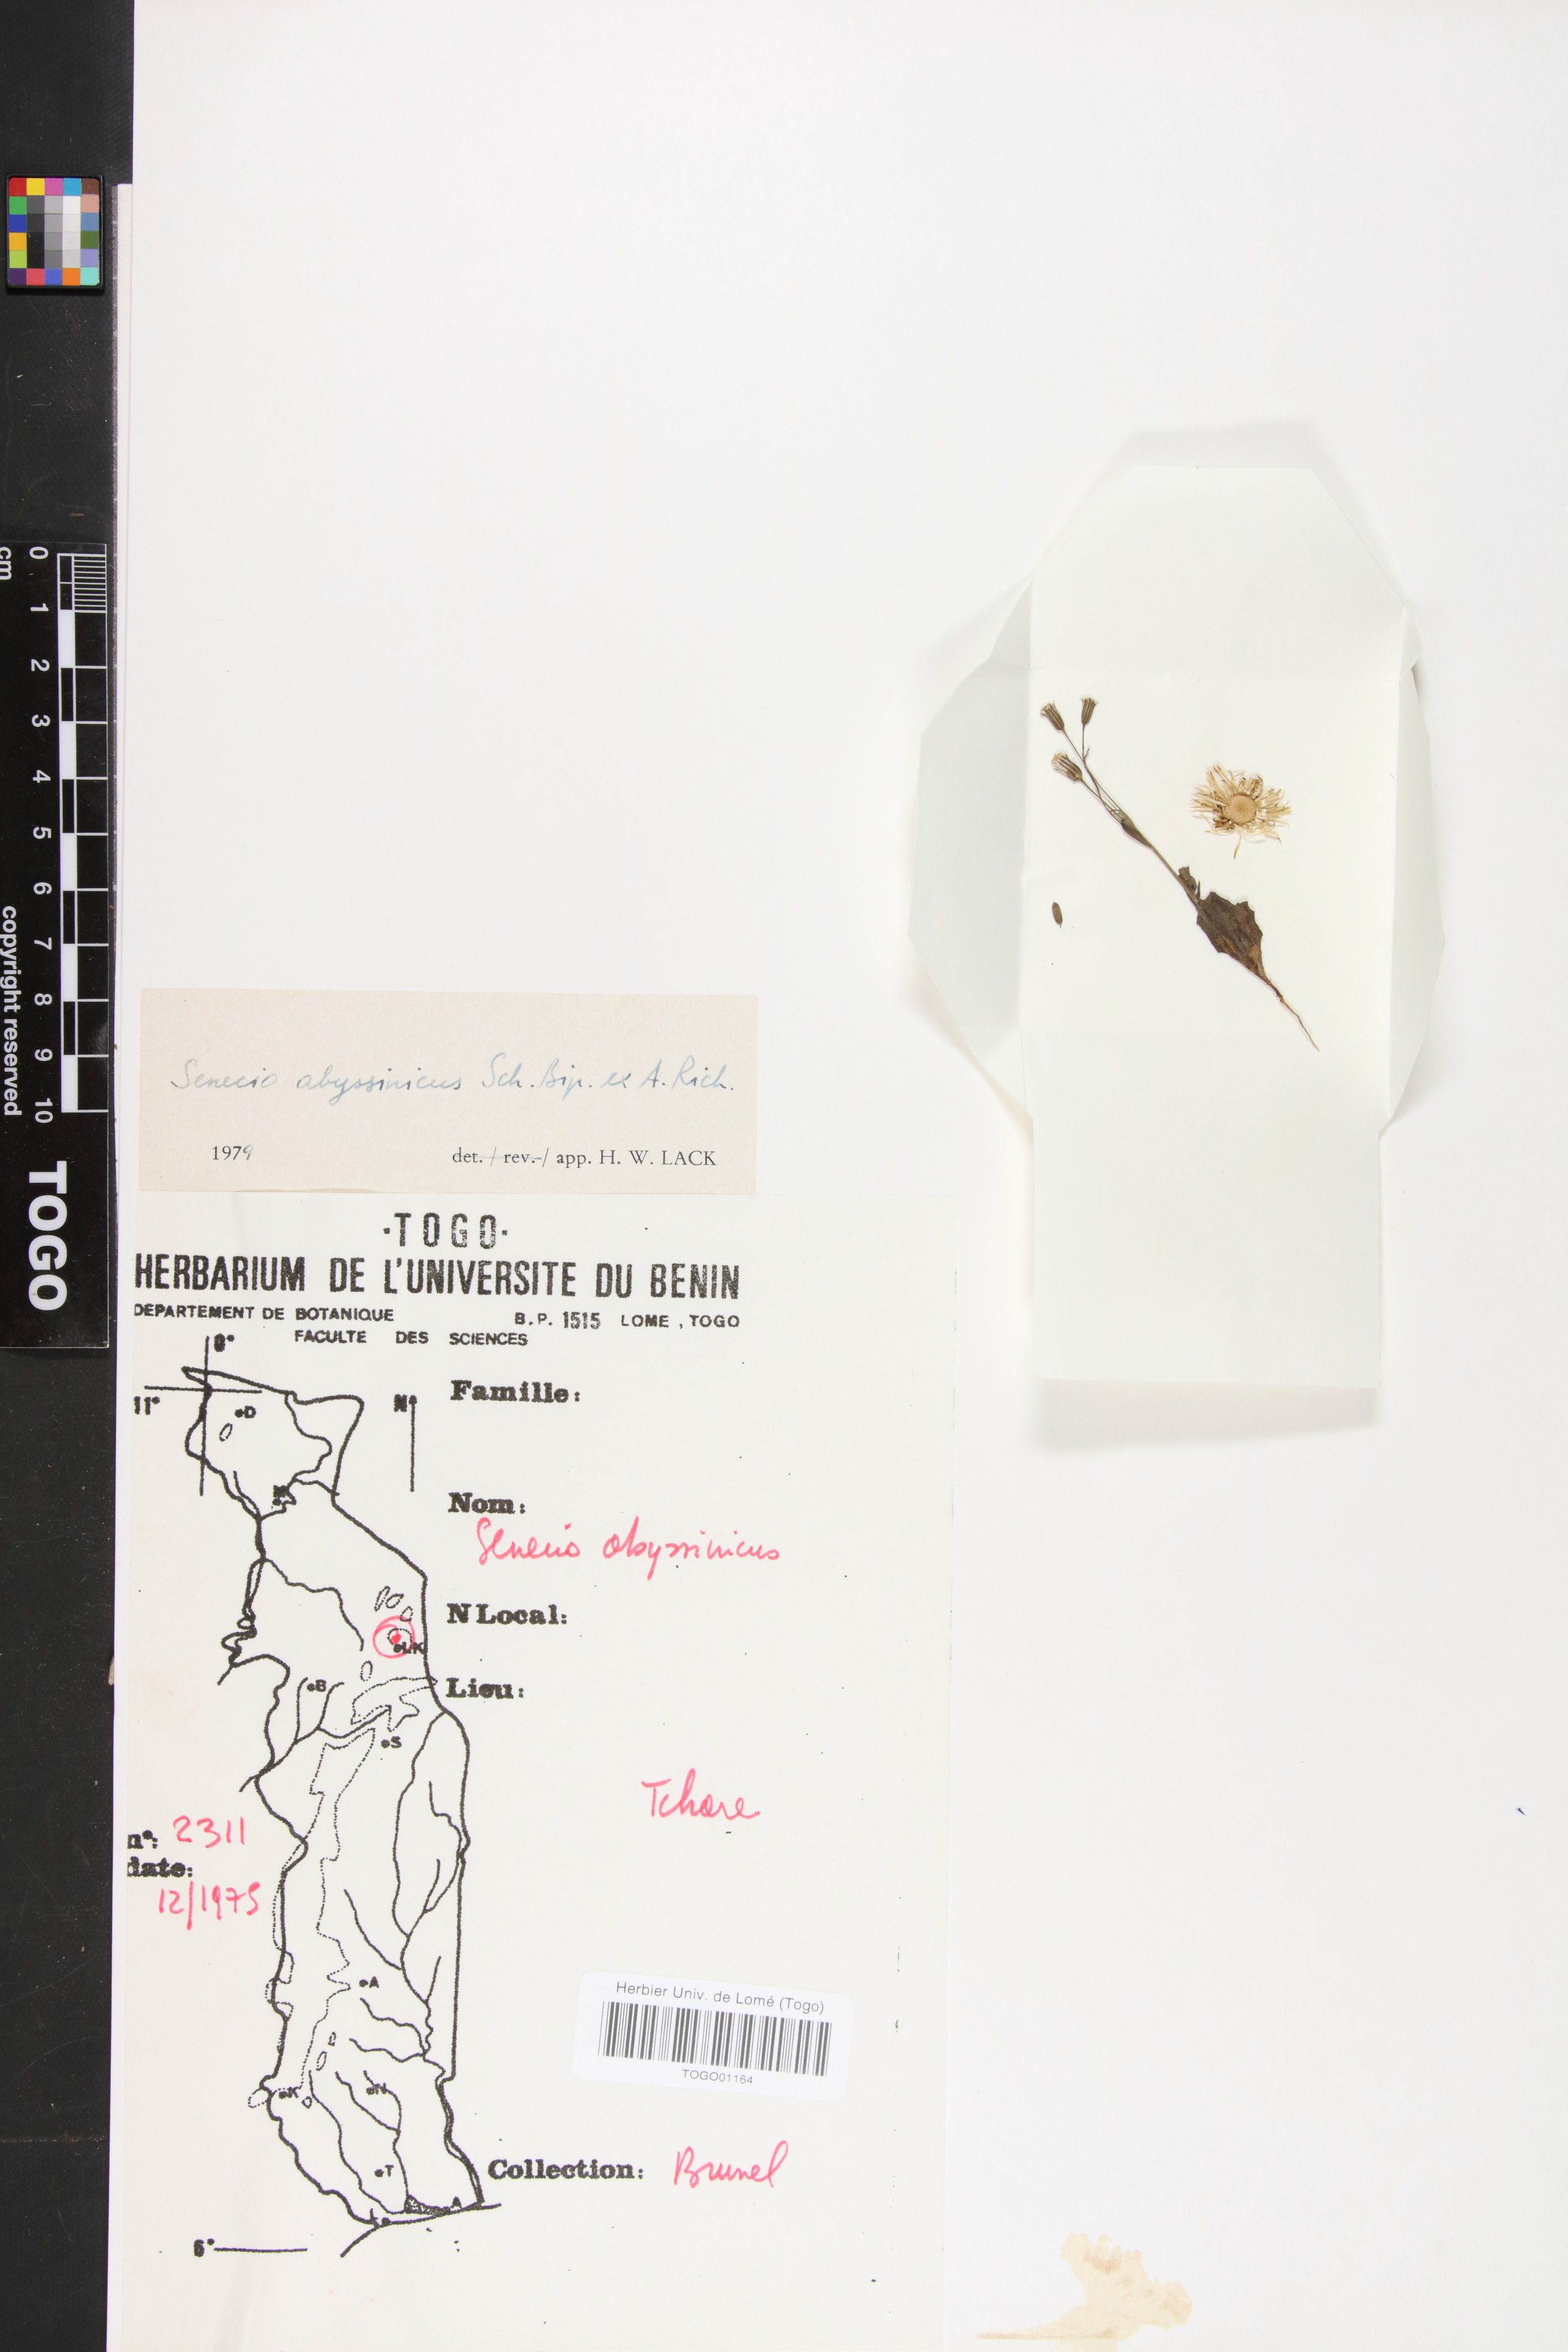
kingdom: Plantae
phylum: Tracheophyta
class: Magnoliopsida
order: Asterales
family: Asteraceae
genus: Emilia
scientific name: Emilia abyssinica
